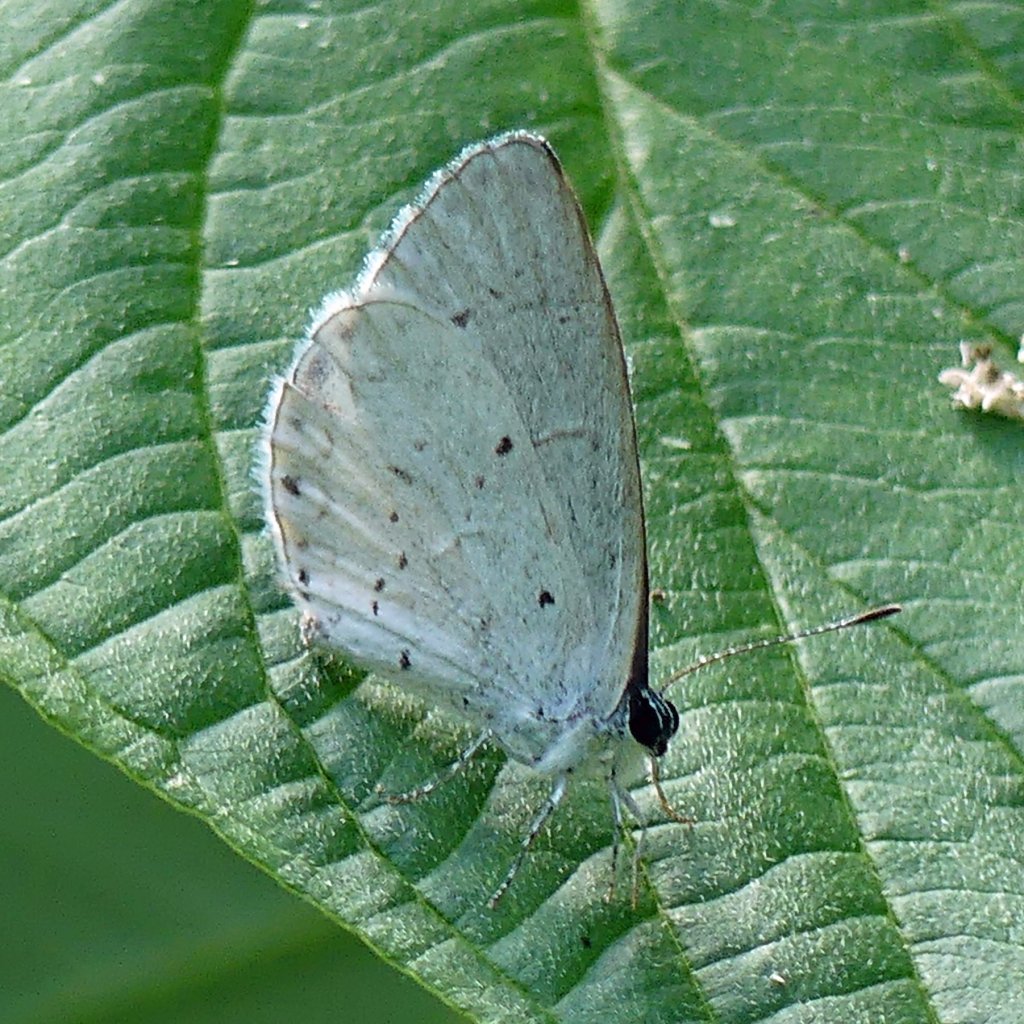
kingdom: Animalia
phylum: Arthropoda
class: Insecta
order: Lepidoptera
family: Lycaenidae
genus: Cyaniris
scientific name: Cyaniris neglecta
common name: Summer Azure
